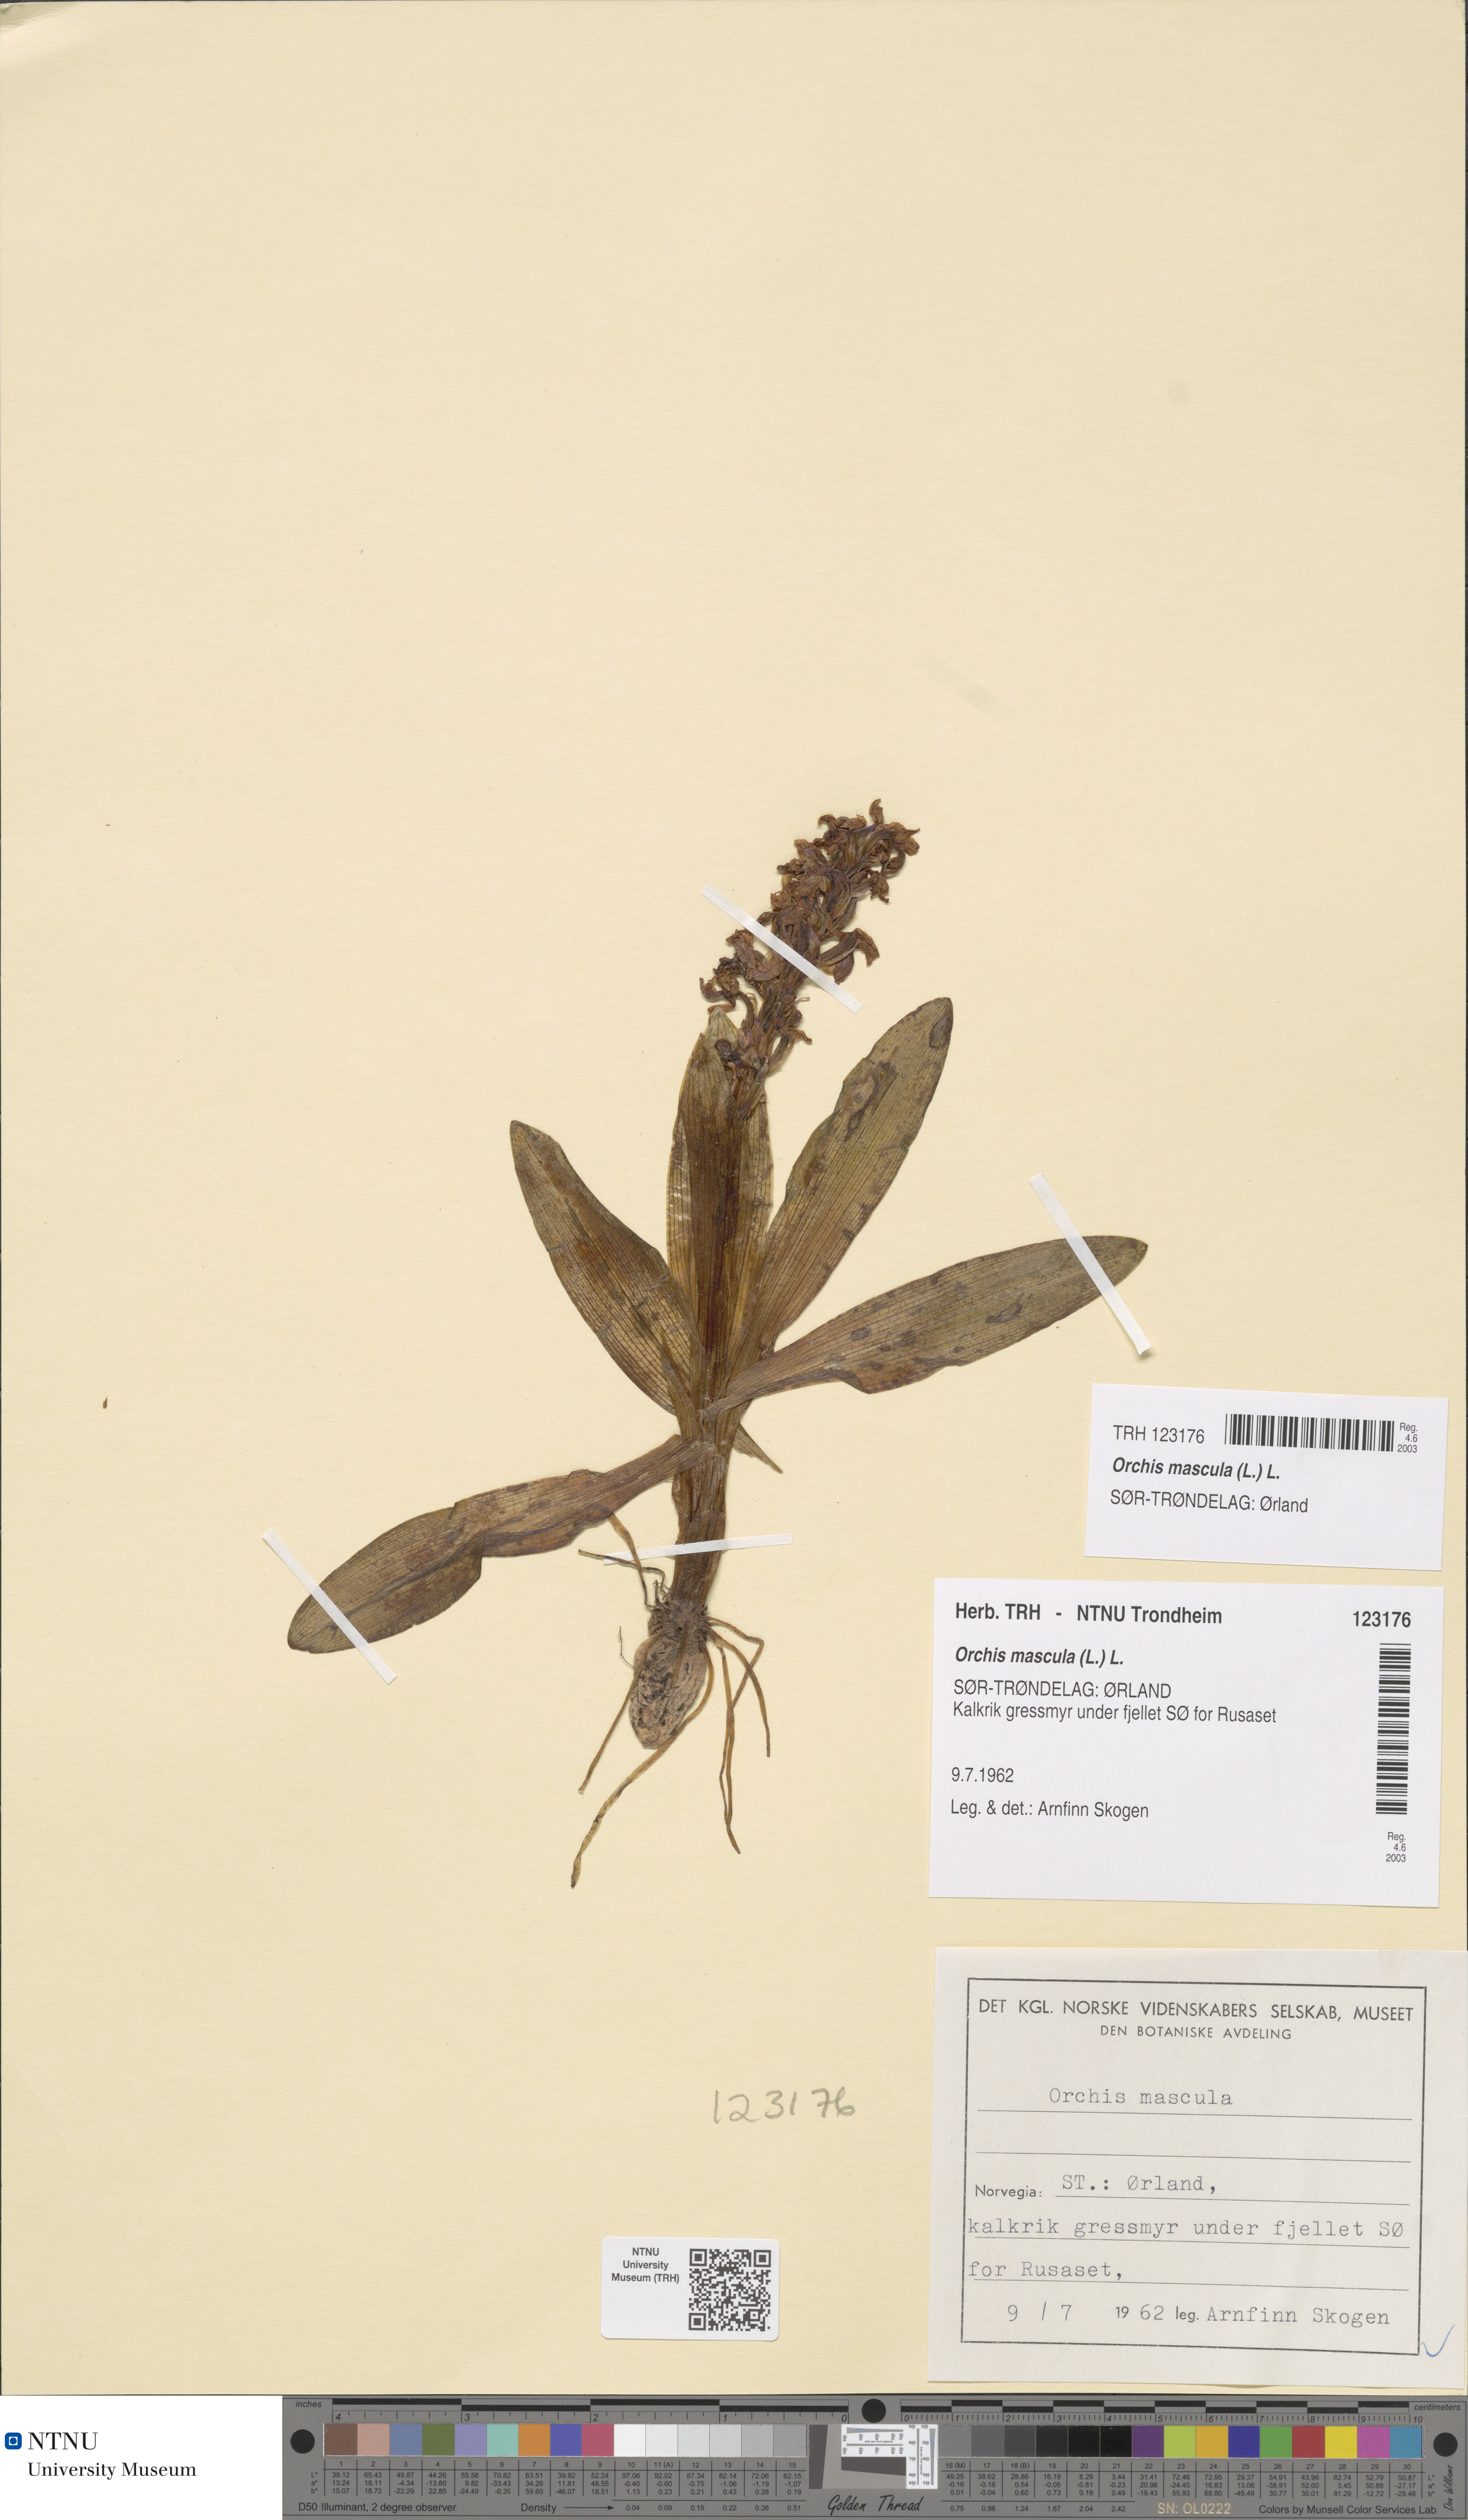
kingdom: Plantae
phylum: Tracheophyta
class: Liliopsida
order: Asparagales
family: Orchidaceae
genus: Orchis
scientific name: Orchis mascula
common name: Early-purple orchid
